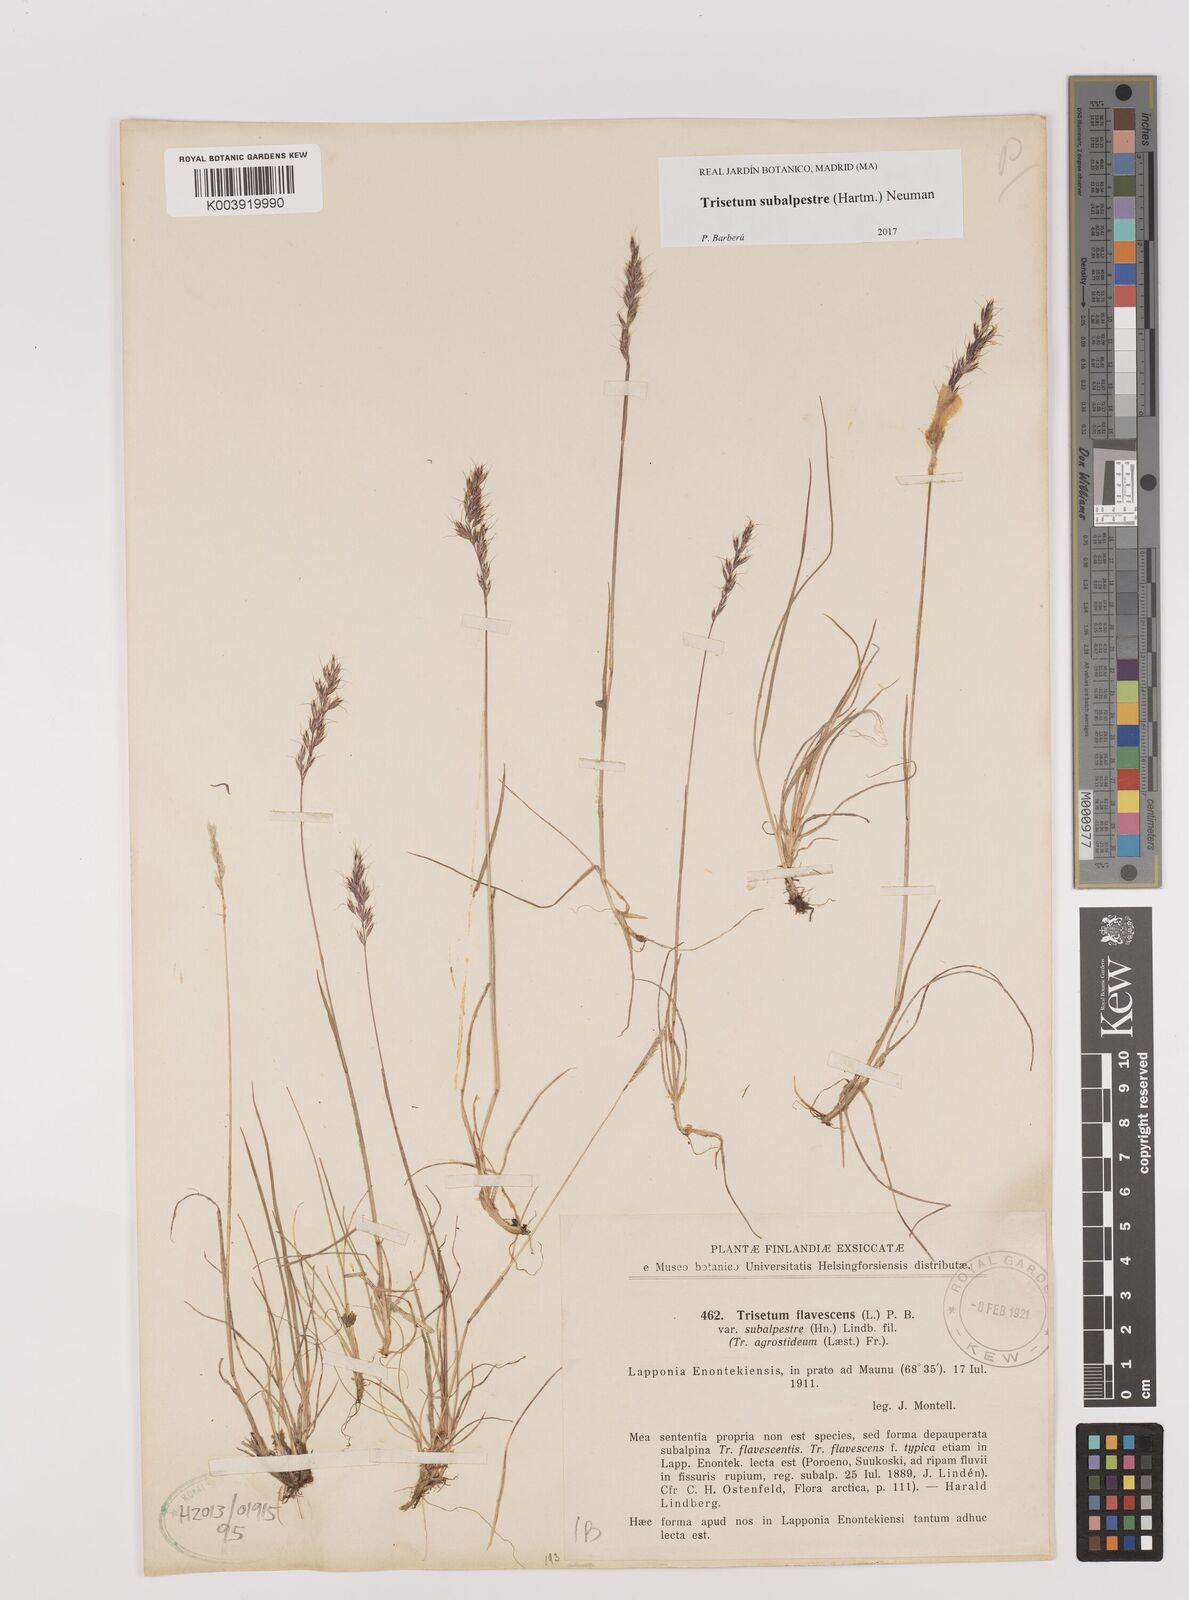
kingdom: Plantae
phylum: Tracheophyta
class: Liliopsida
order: Poales
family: Poaceae
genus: Koeleria
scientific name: Koeleria subalpestris
